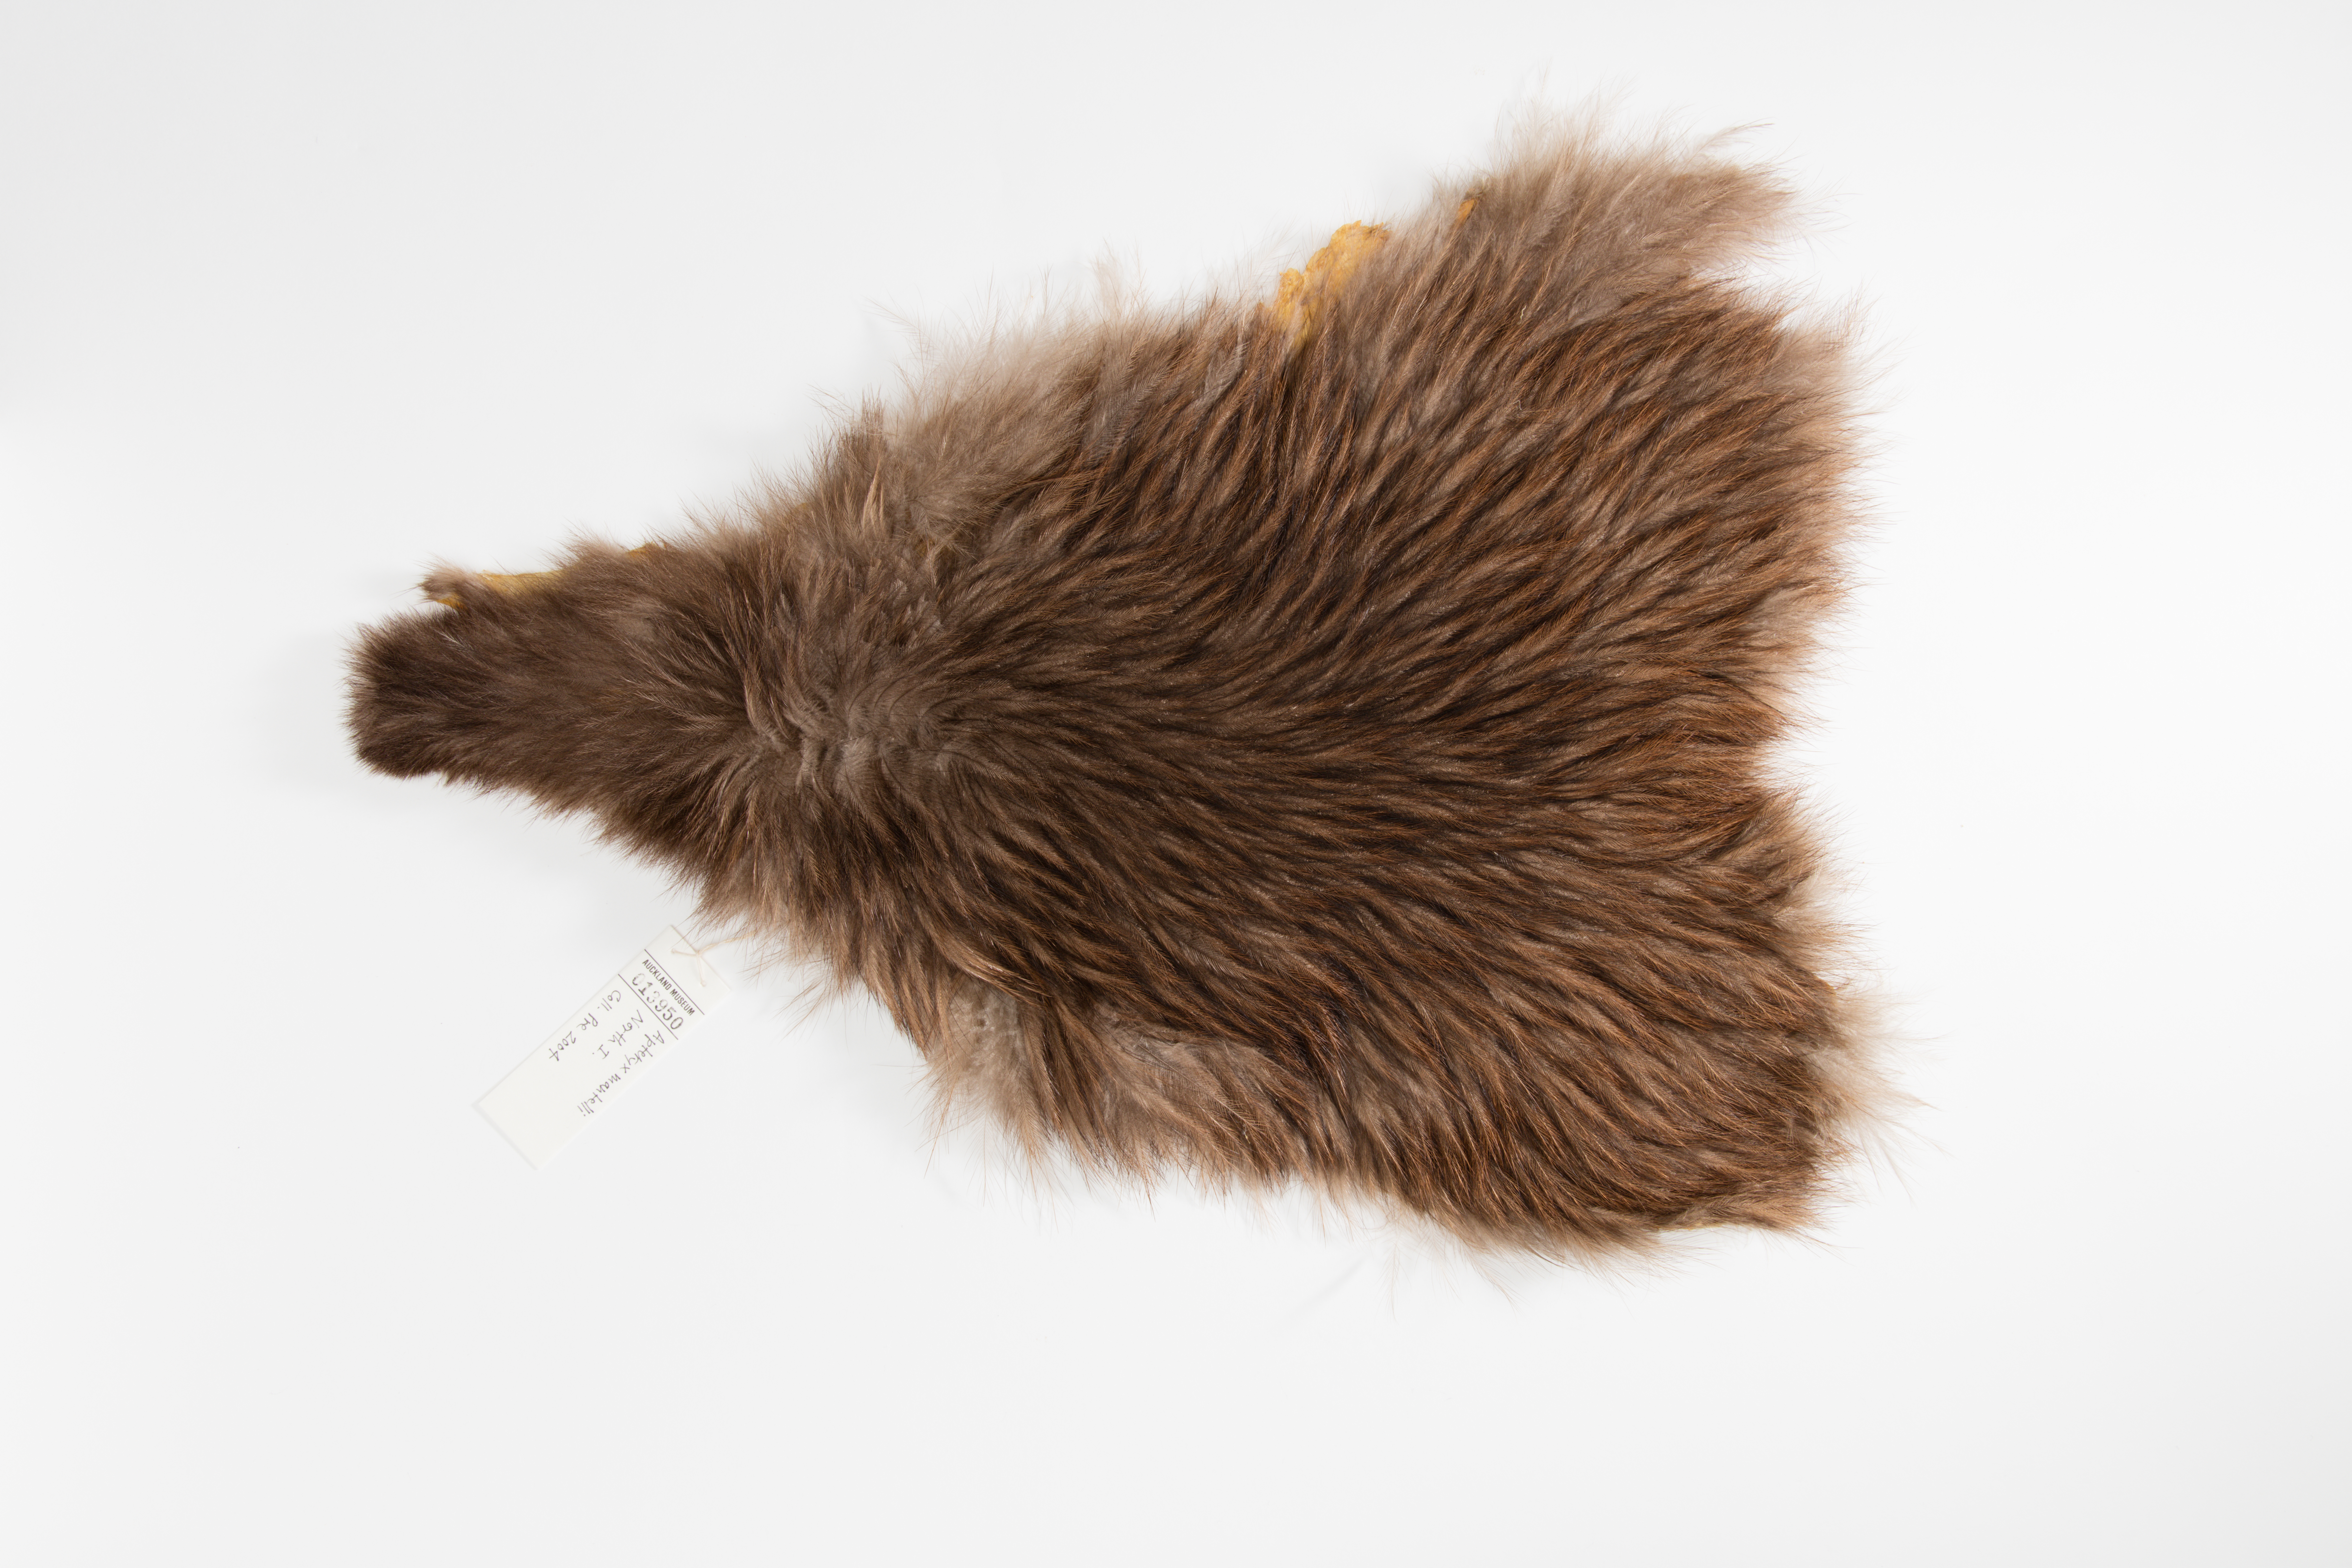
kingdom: Animalia
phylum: Chordata
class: Aves
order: Apterygiformes
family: Apterygidae
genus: Apteryx
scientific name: Apteryx mantelli
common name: North island brown kiwi
